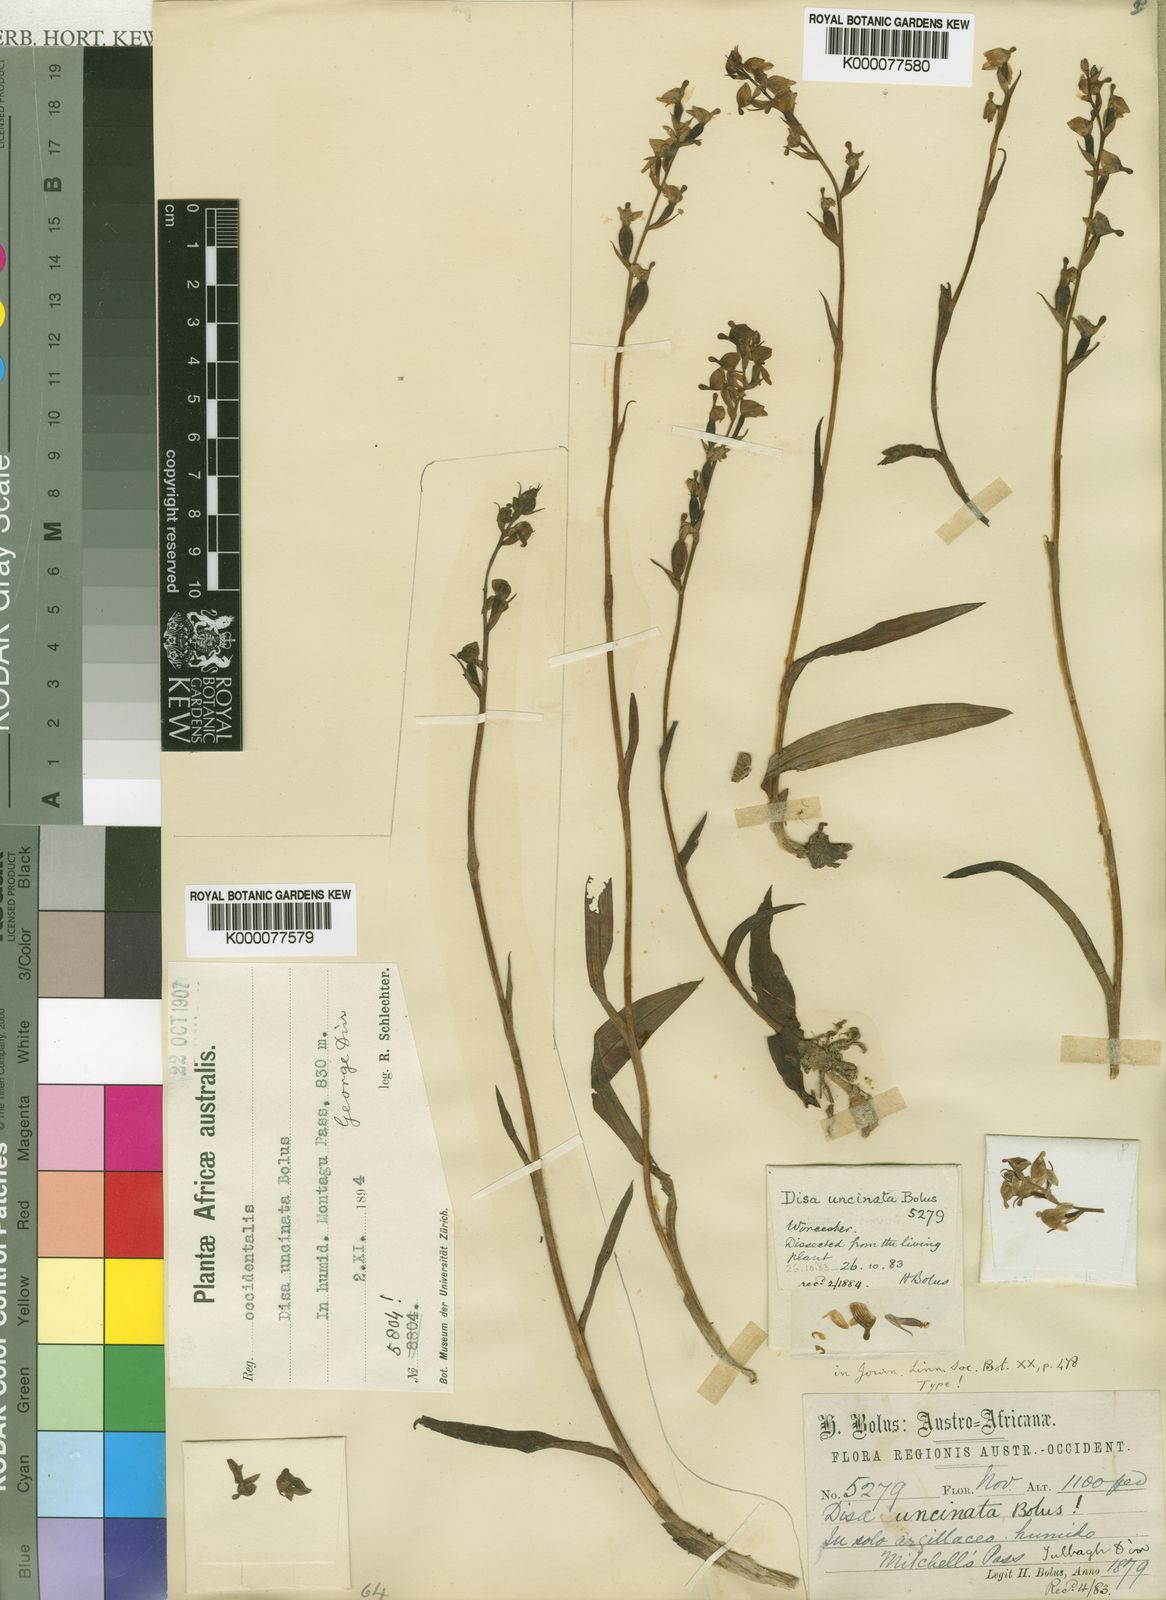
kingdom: Plantae
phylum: Tracheophyta
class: Liliopsida
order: Asparagales
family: Orchidaceae
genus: Disa
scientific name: Disa uncinata
